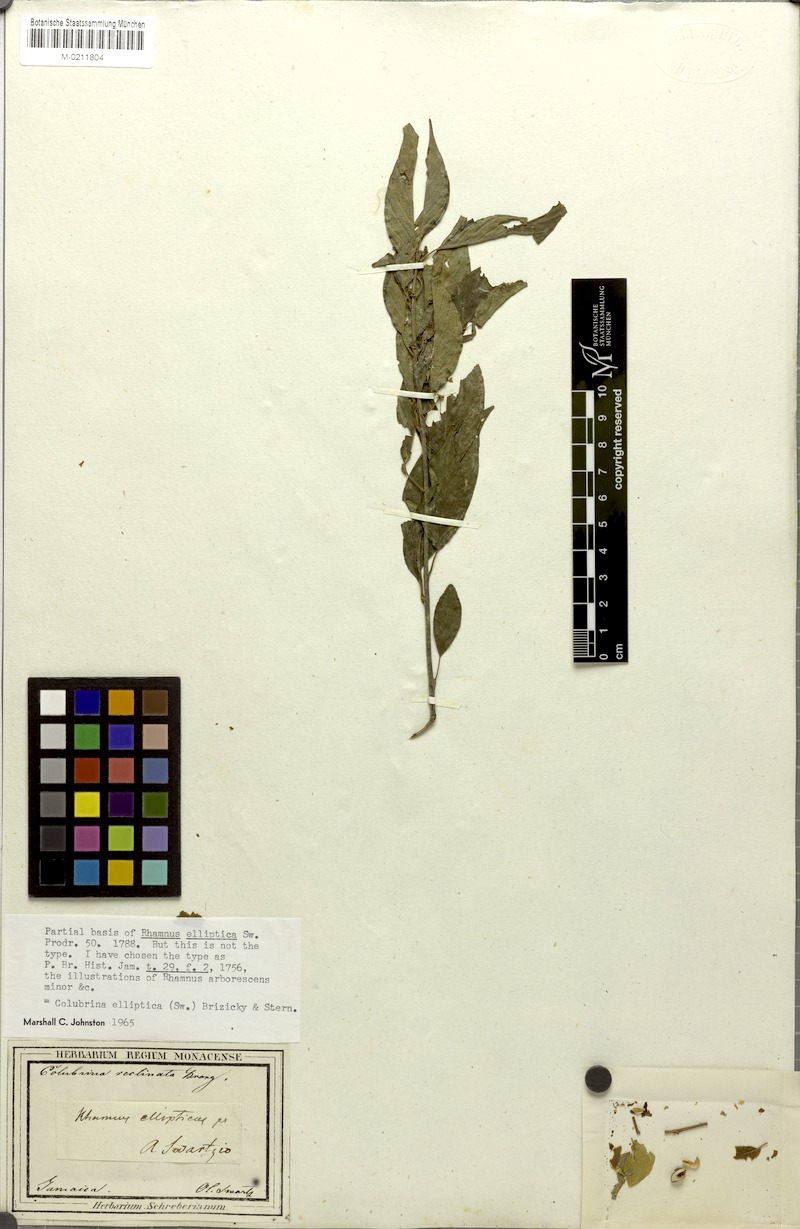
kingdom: Plantae
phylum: Tracheophyta
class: Magnoliopsida
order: Rosales
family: Rhamnaceae
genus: Colubrina
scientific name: Colubrina elliptica
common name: Soldierwood
